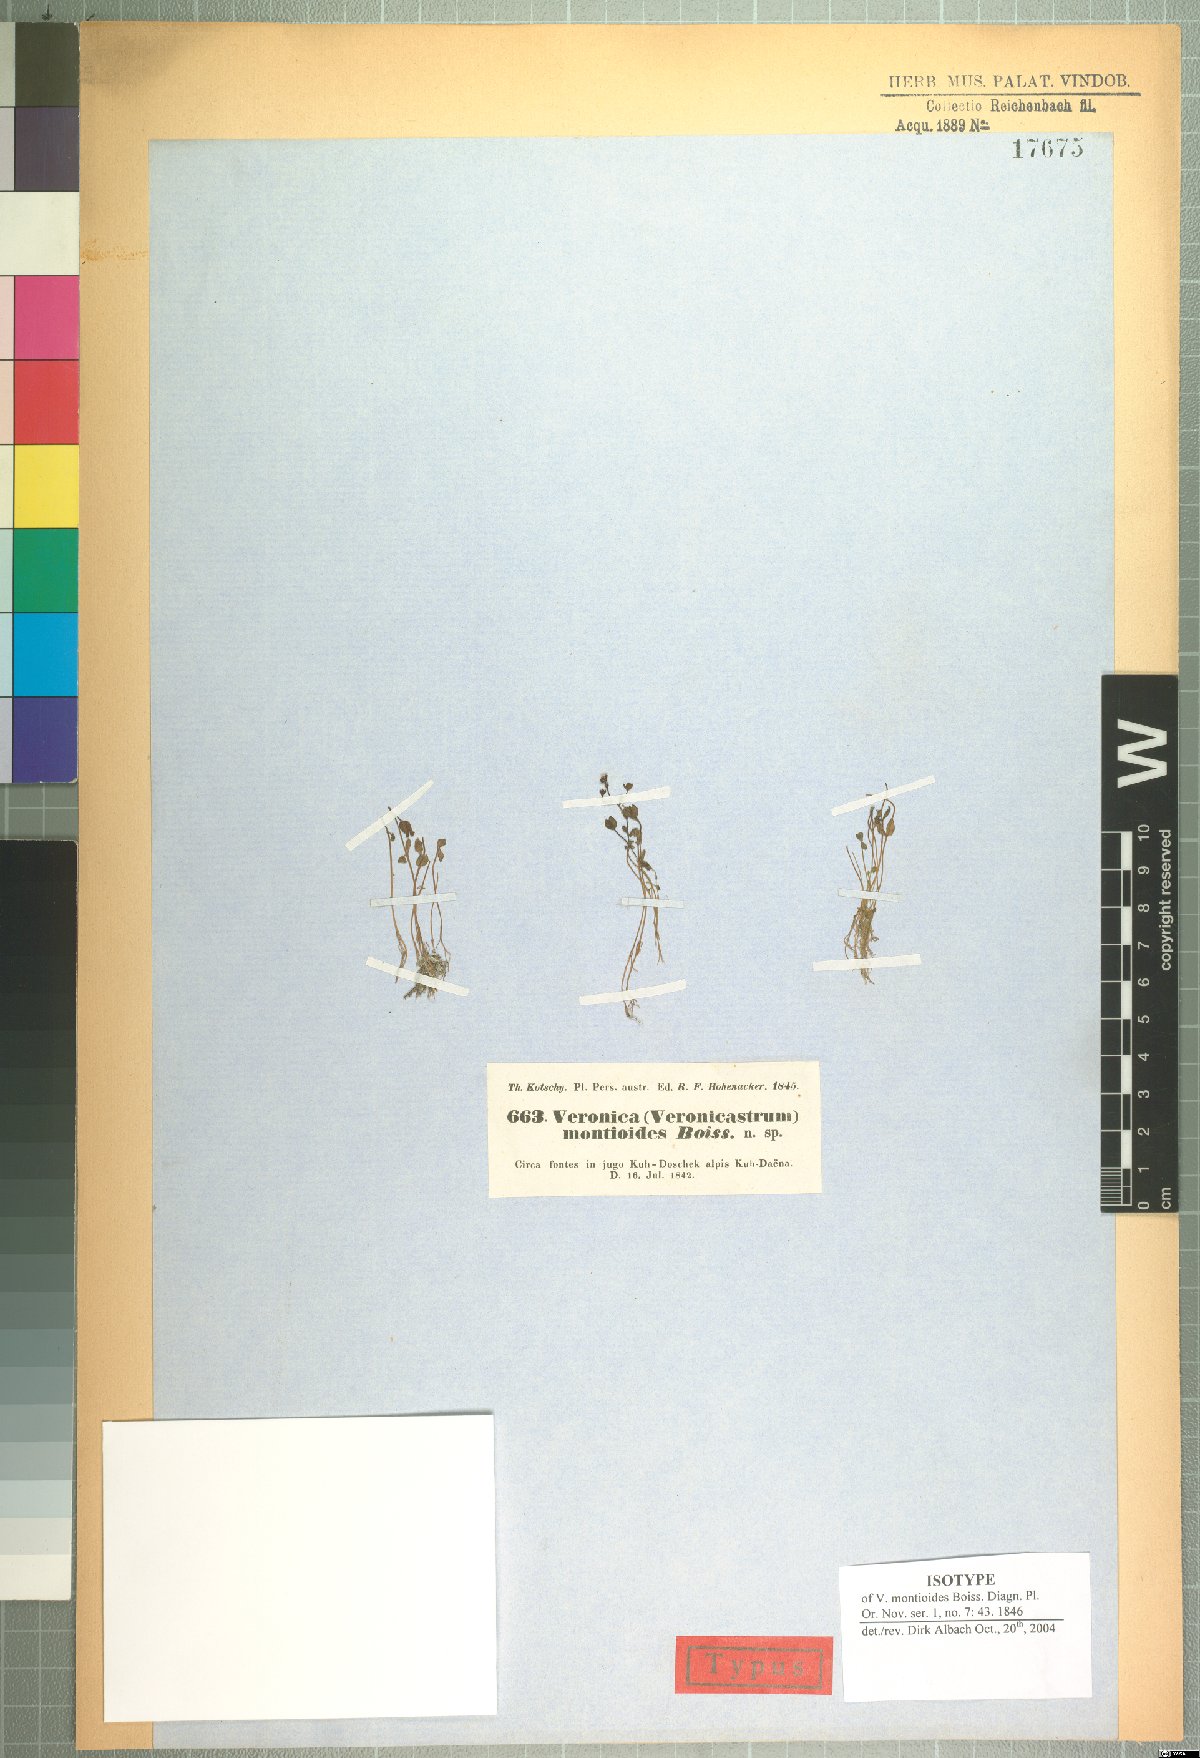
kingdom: Plantae
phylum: Tracheophyta
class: Magnoliopsida
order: Lamiales
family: Plantaginaceae
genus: Veronica
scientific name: Veronica oxycarpa
